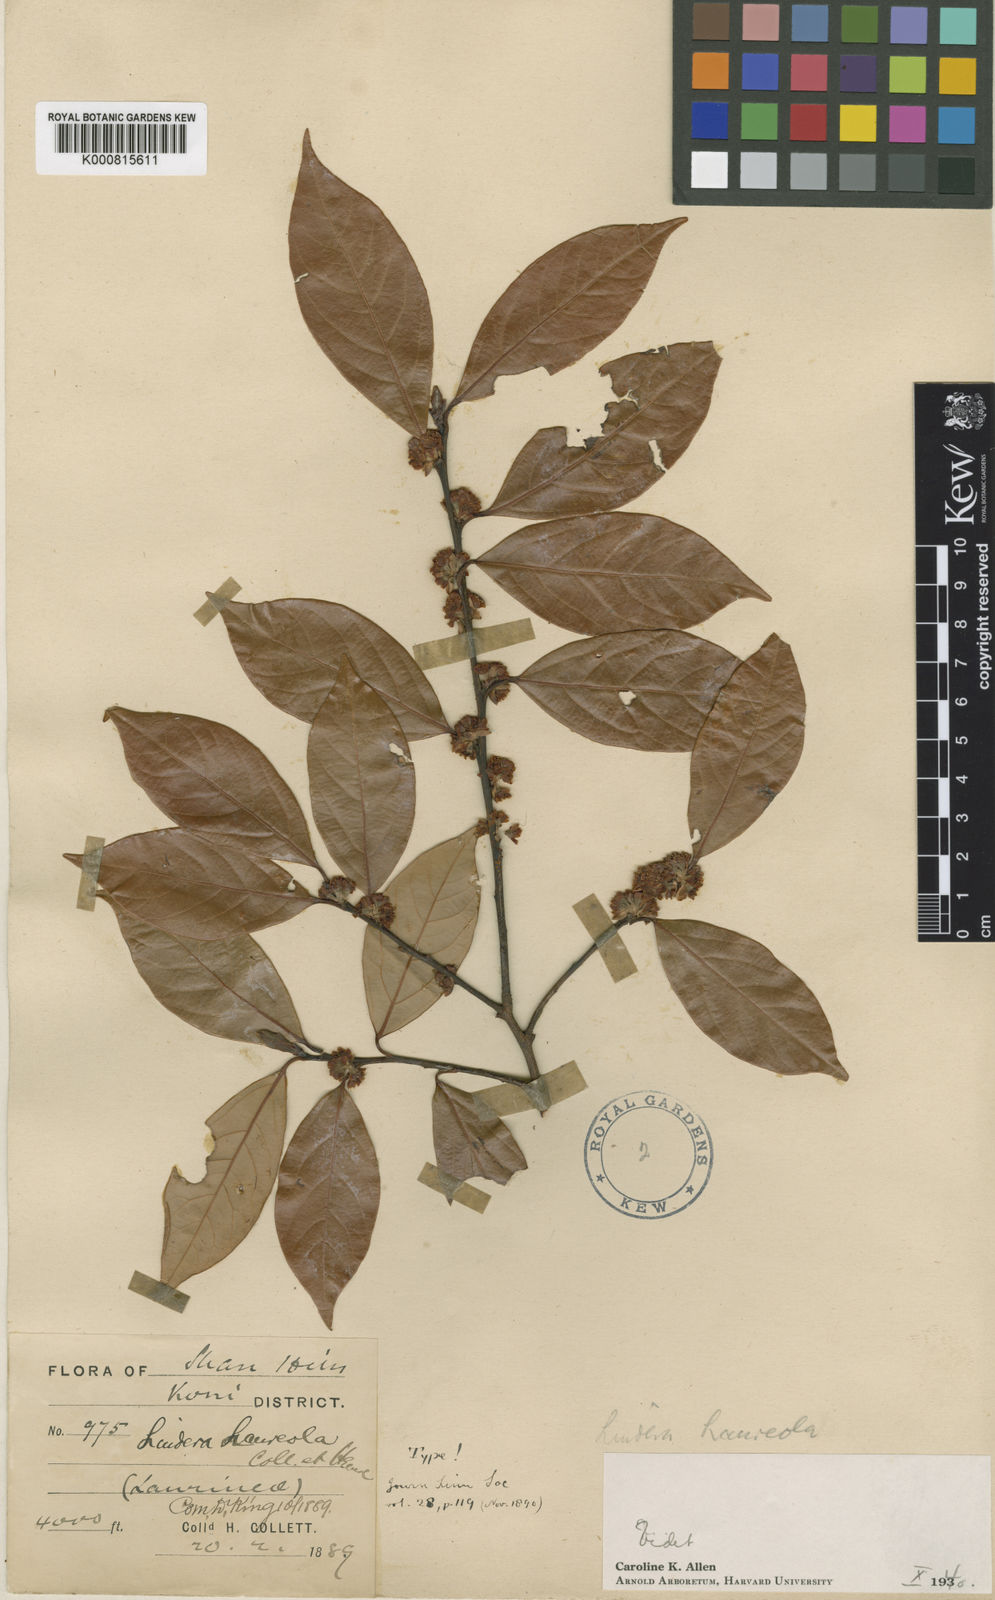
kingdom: Plantae
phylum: Tracheophyta
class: Magnoliopsida
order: Laurales
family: Lauraceae
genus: Lindera
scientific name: Lindera laureola
